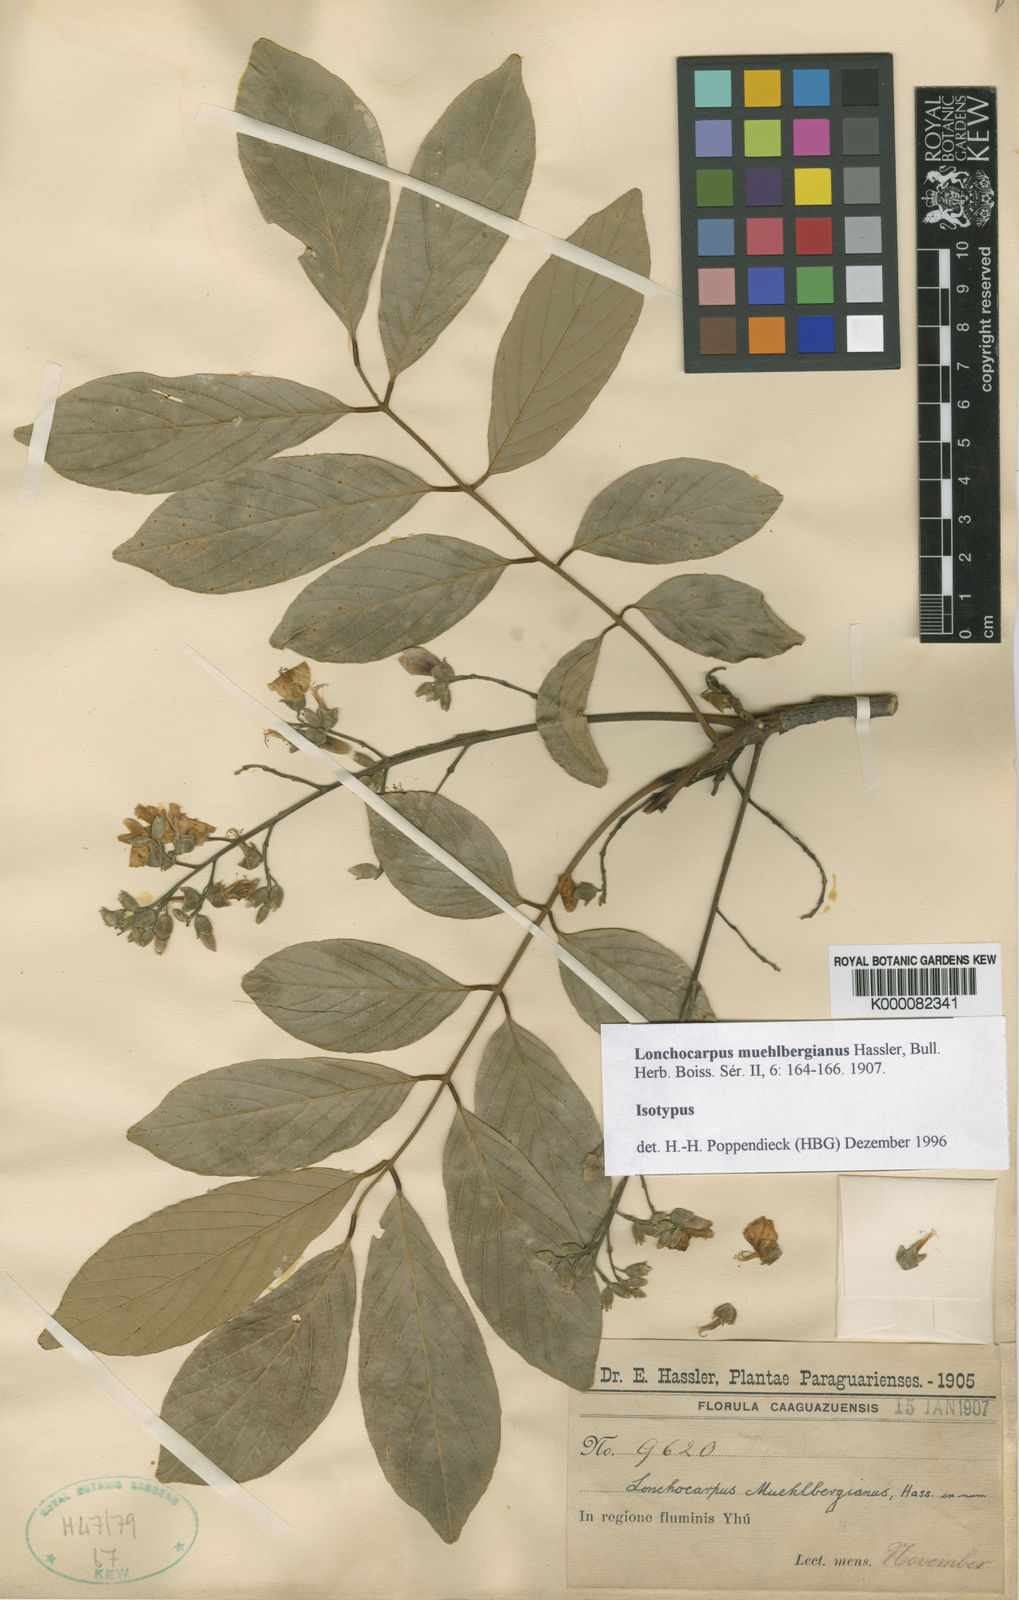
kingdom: Plantae
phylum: Tracheophyta
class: Magnoliopsida
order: Fabales
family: Fabaceae
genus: Dahlstedtia
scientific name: Dahlstedtia muehlbergiana
